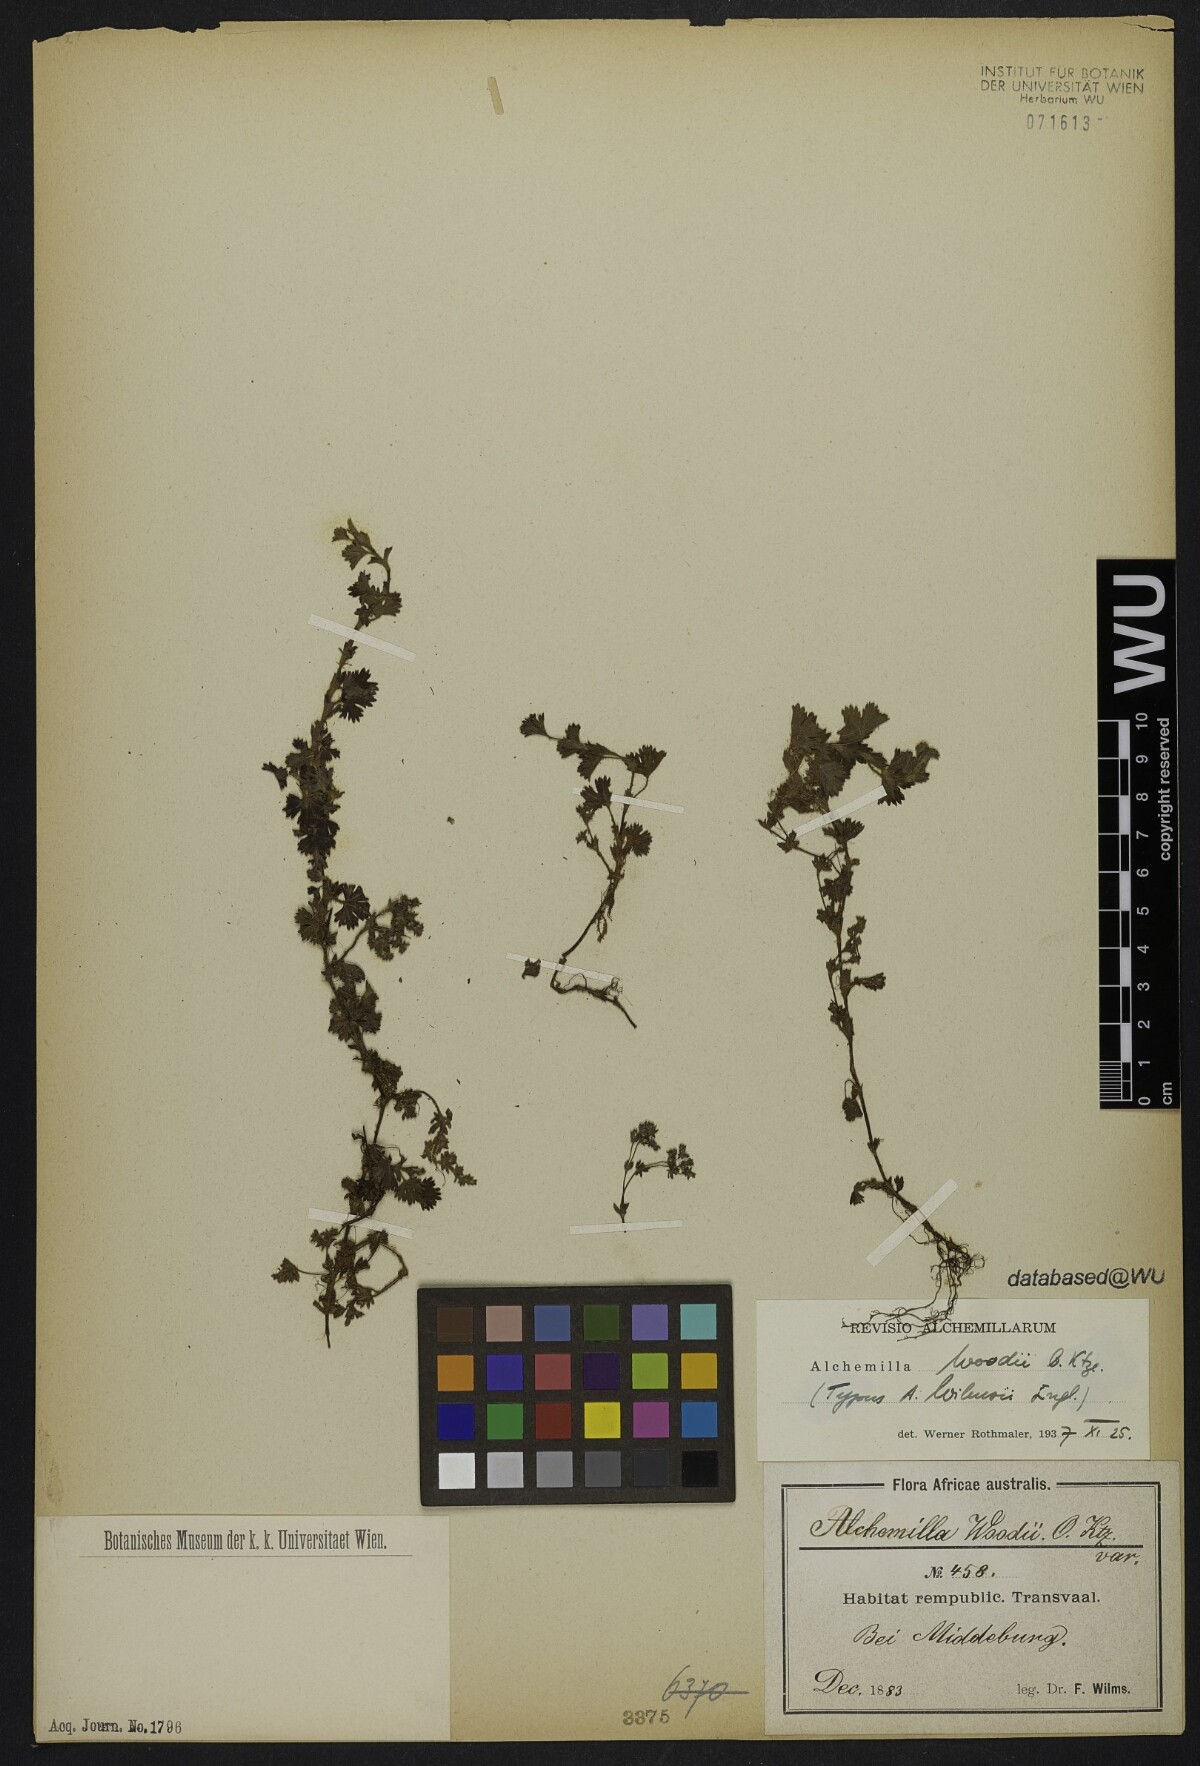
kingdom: Plantae
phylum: Tracheophyta
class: Magnoliopsida
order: Rosales
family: Rosaceae
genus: Alchemilla
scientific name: Alchemilla woodii
